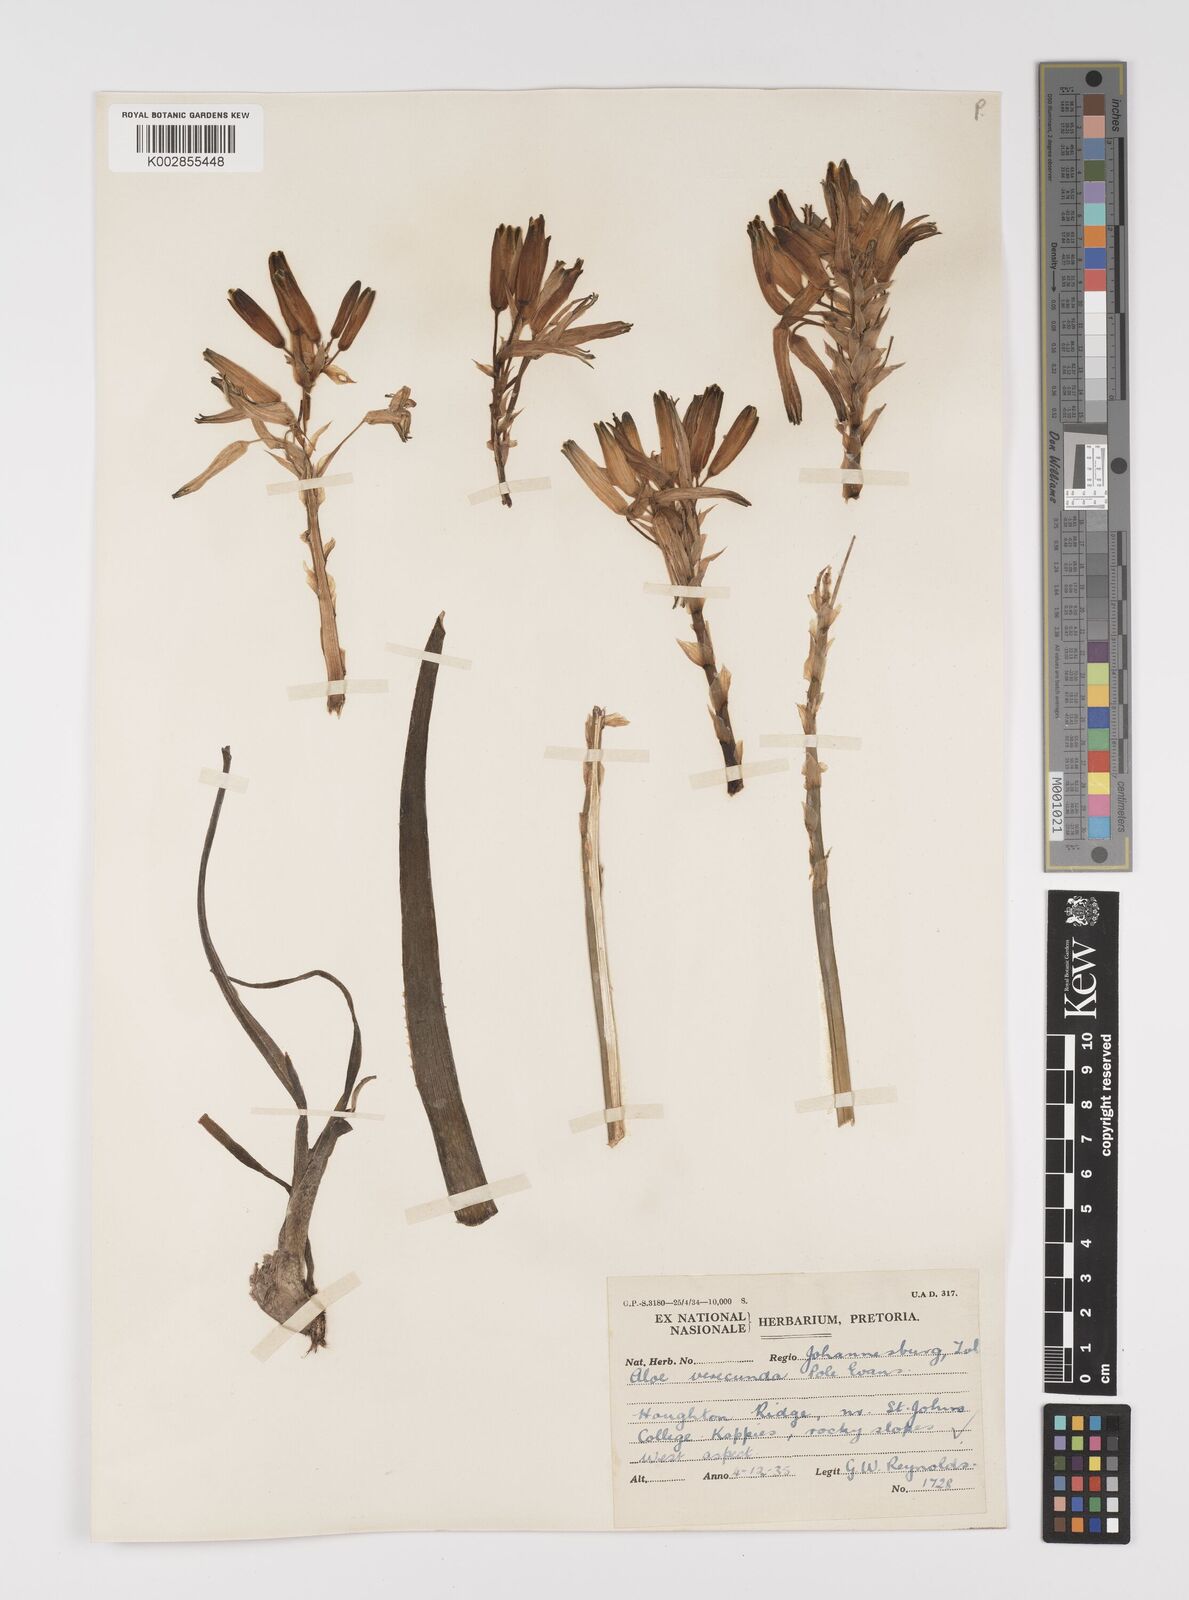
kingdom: Plantae
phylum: Tracheophyta
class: Liliopsida
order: Asparagales
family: Asphodelaceae
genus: Aloe
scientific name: Aloe verecunda
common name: Grass aloe
